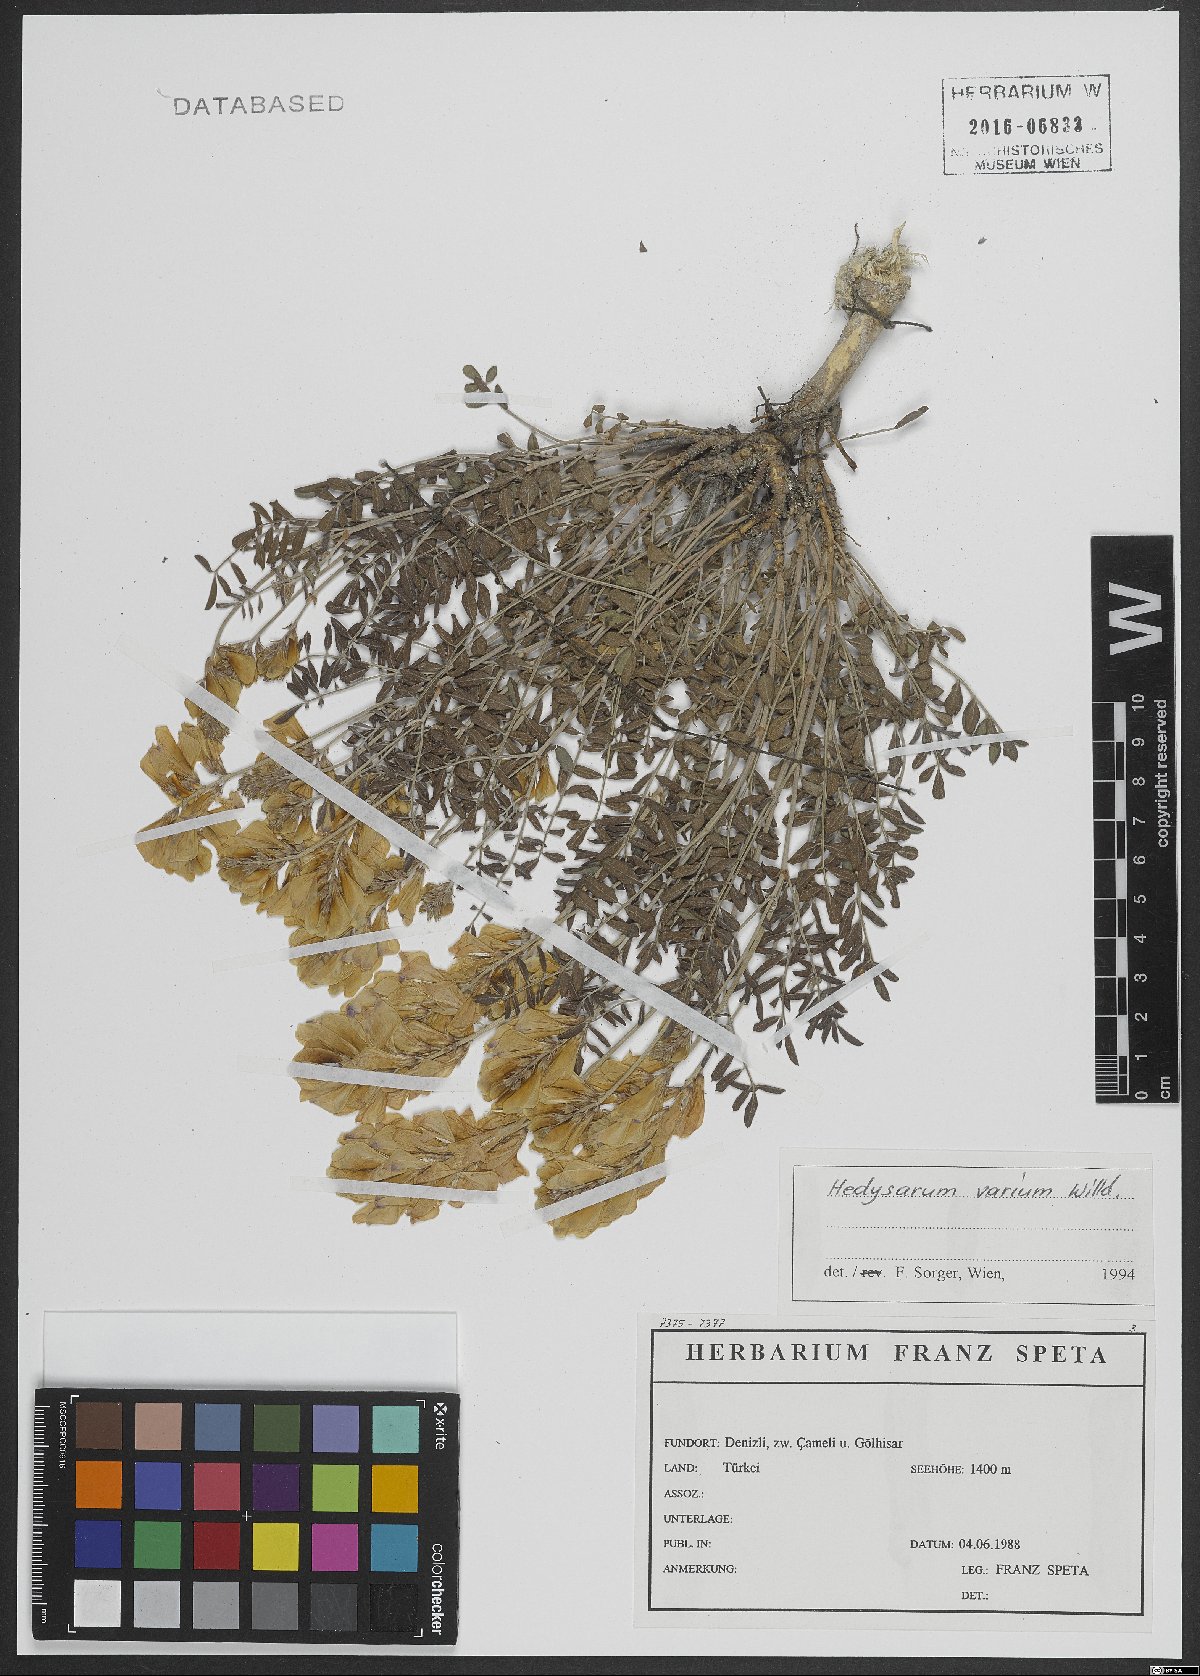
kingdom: Plantae
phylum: Tracheophyta
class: Magnoliopsida
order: Fabales
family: Fabaceae
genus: Hedysarum
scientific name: Hedysarum varium
